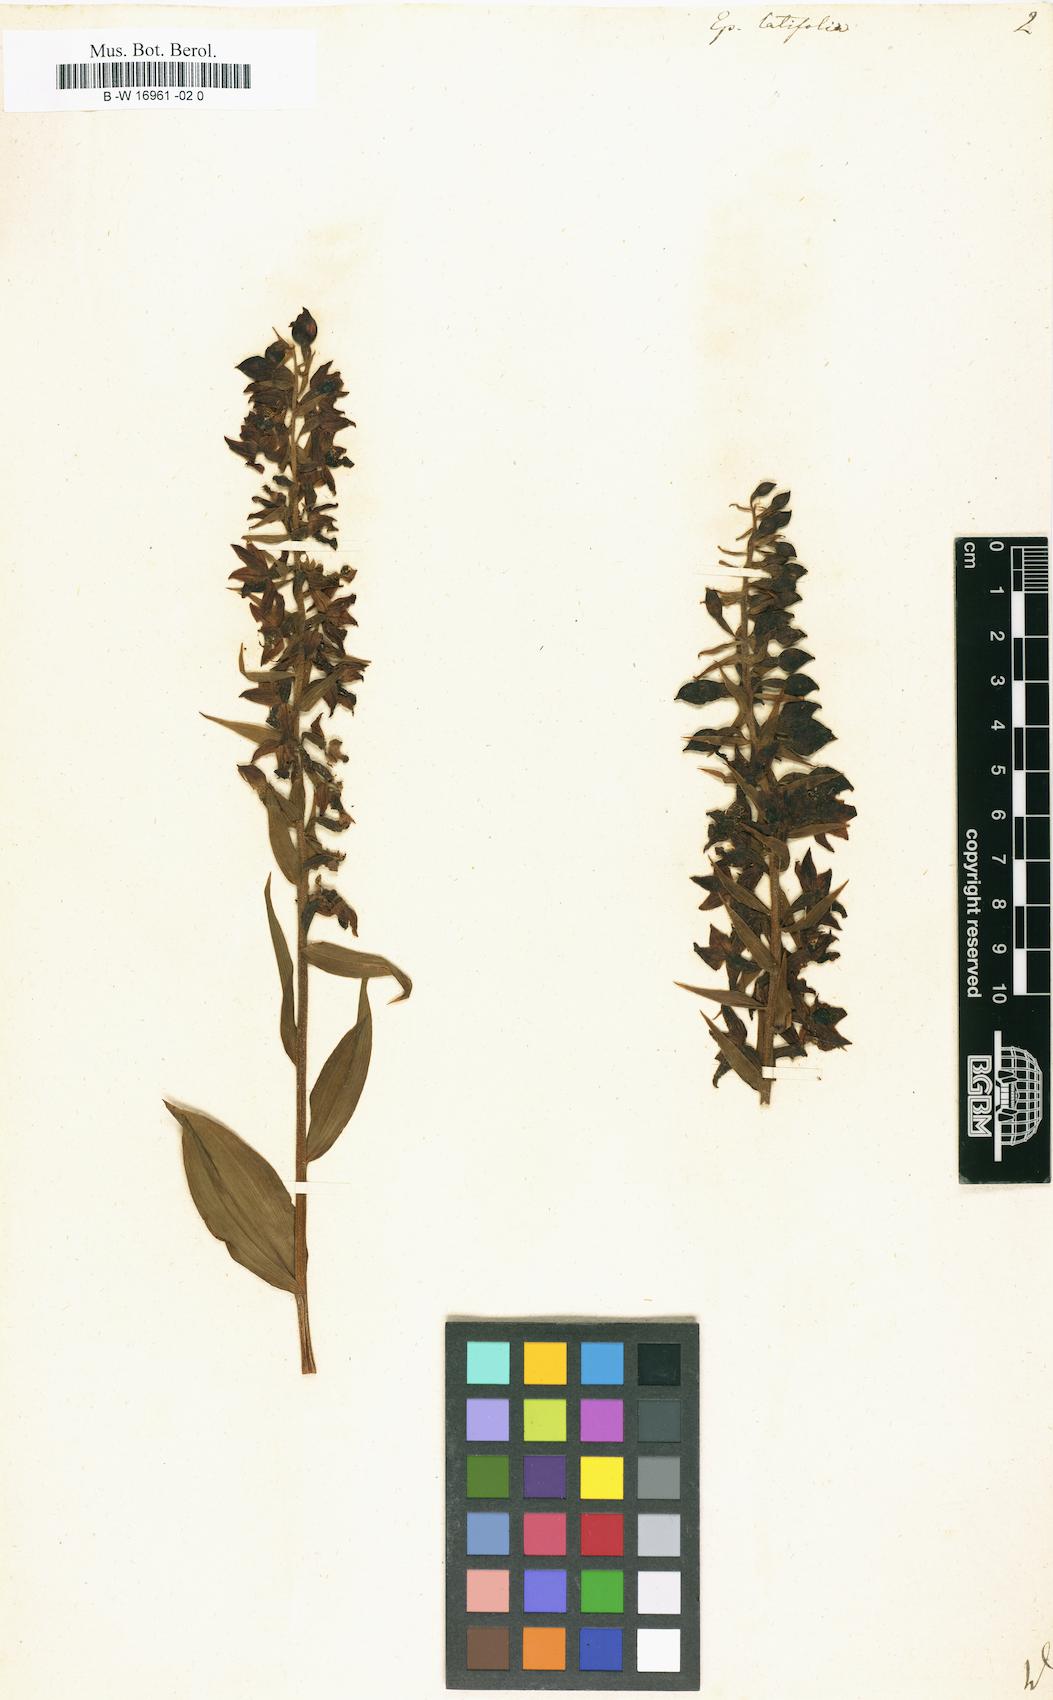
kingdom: Plantae
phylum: Tracheophyta
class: Liliopsida
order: Asparagales
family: Orchidaceae
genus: Epipactis
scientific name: Epipactis
